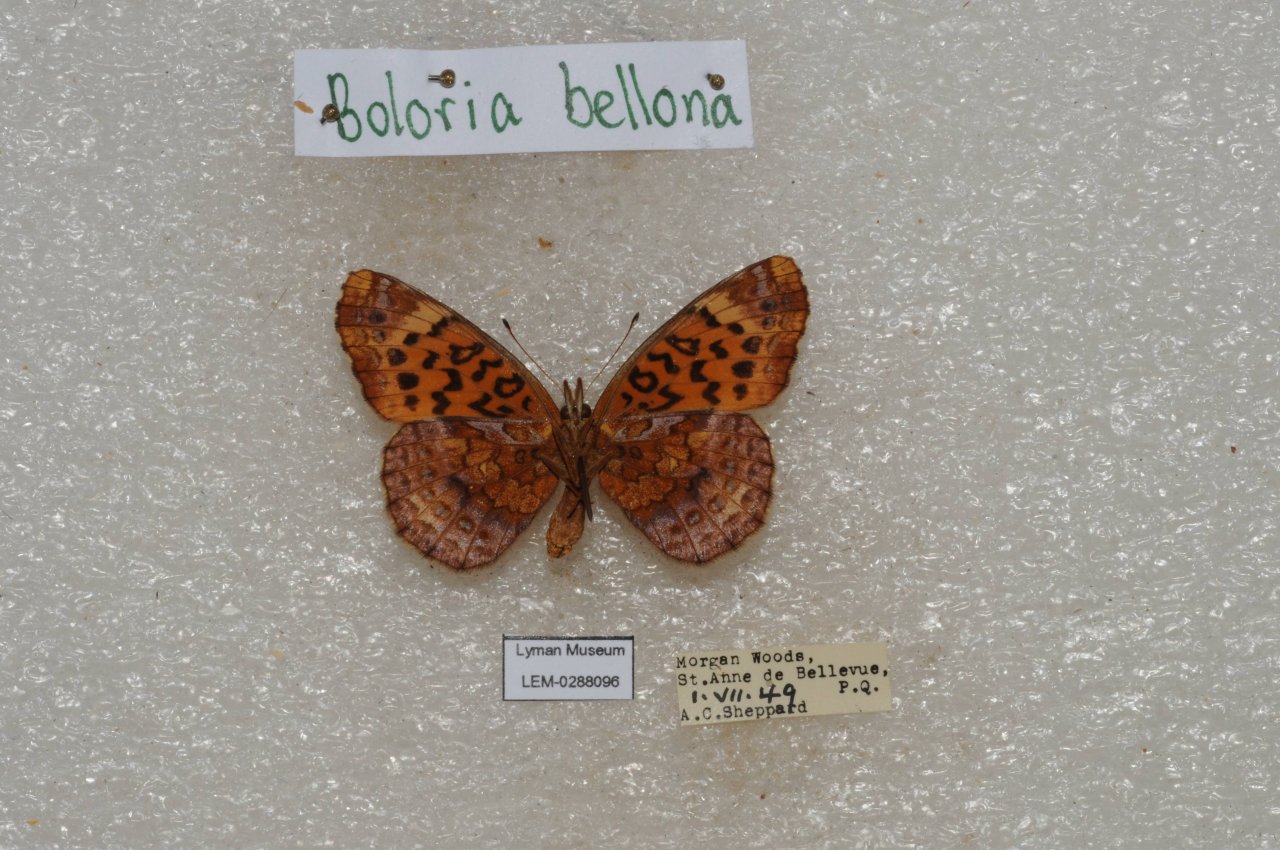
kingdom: Animalia
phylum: Arthropoda
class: Insecta
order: Lepidoptera
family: Nymphalidae
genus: Clossiana
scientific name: Clossiana toddi
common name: Meadow Fritillary
